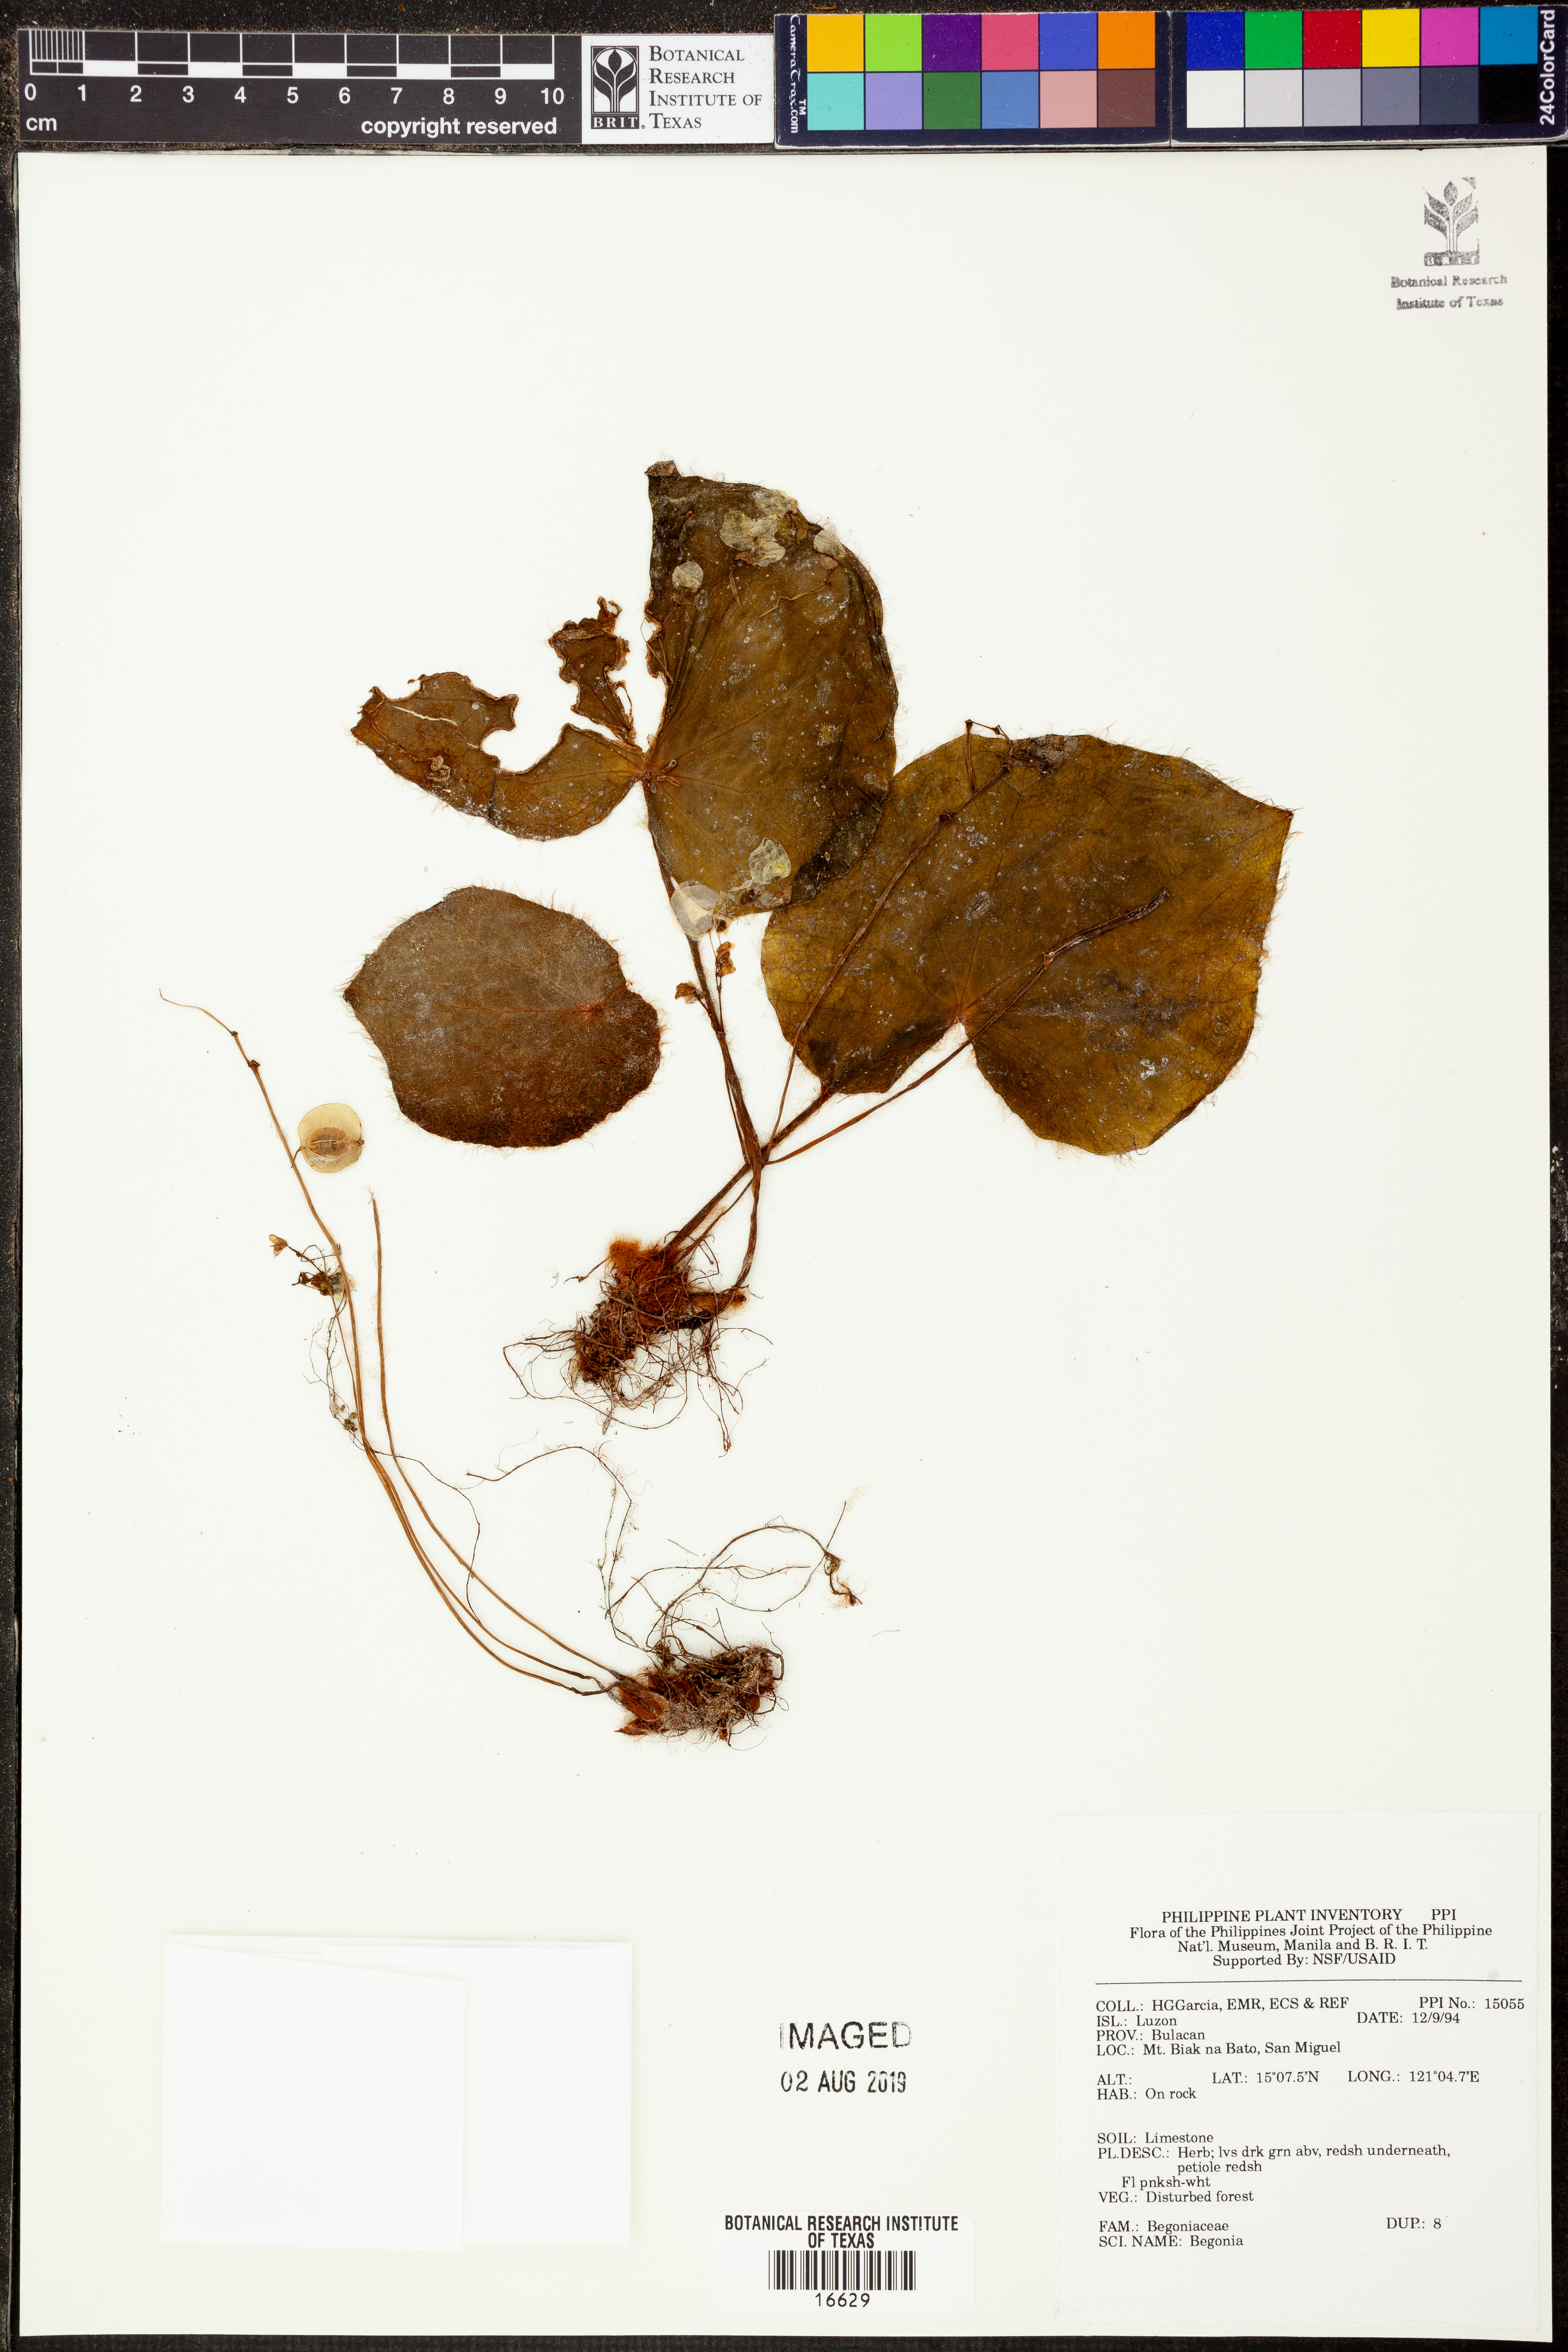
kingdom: Plantae
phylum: Tracheophyta
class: Magnoliopsida
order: Cucurbitales
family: Begoniaceae
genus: Begonia
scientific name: Begonia
